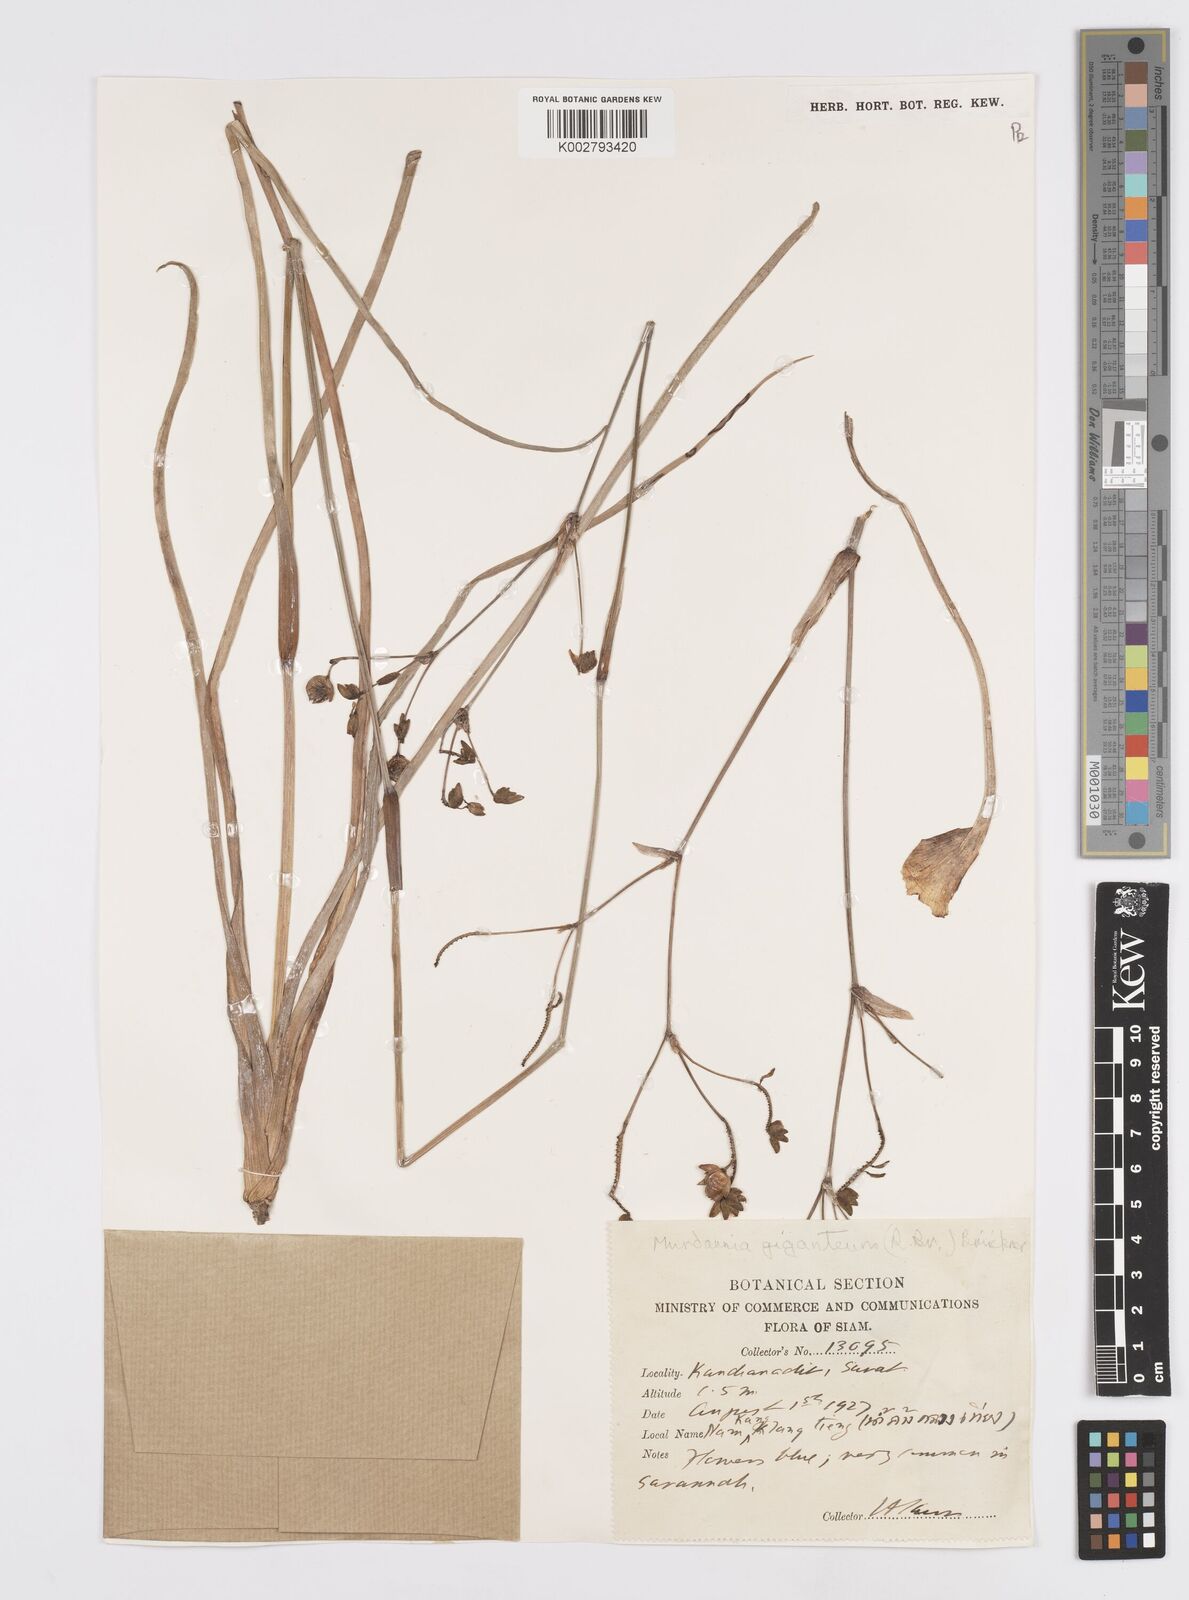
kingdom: Plantae
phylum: Tracheophyta
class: Liliopsida
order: Commelinales
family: Commelinaceae
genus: Murdannia
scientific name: Murdannia gigantea
